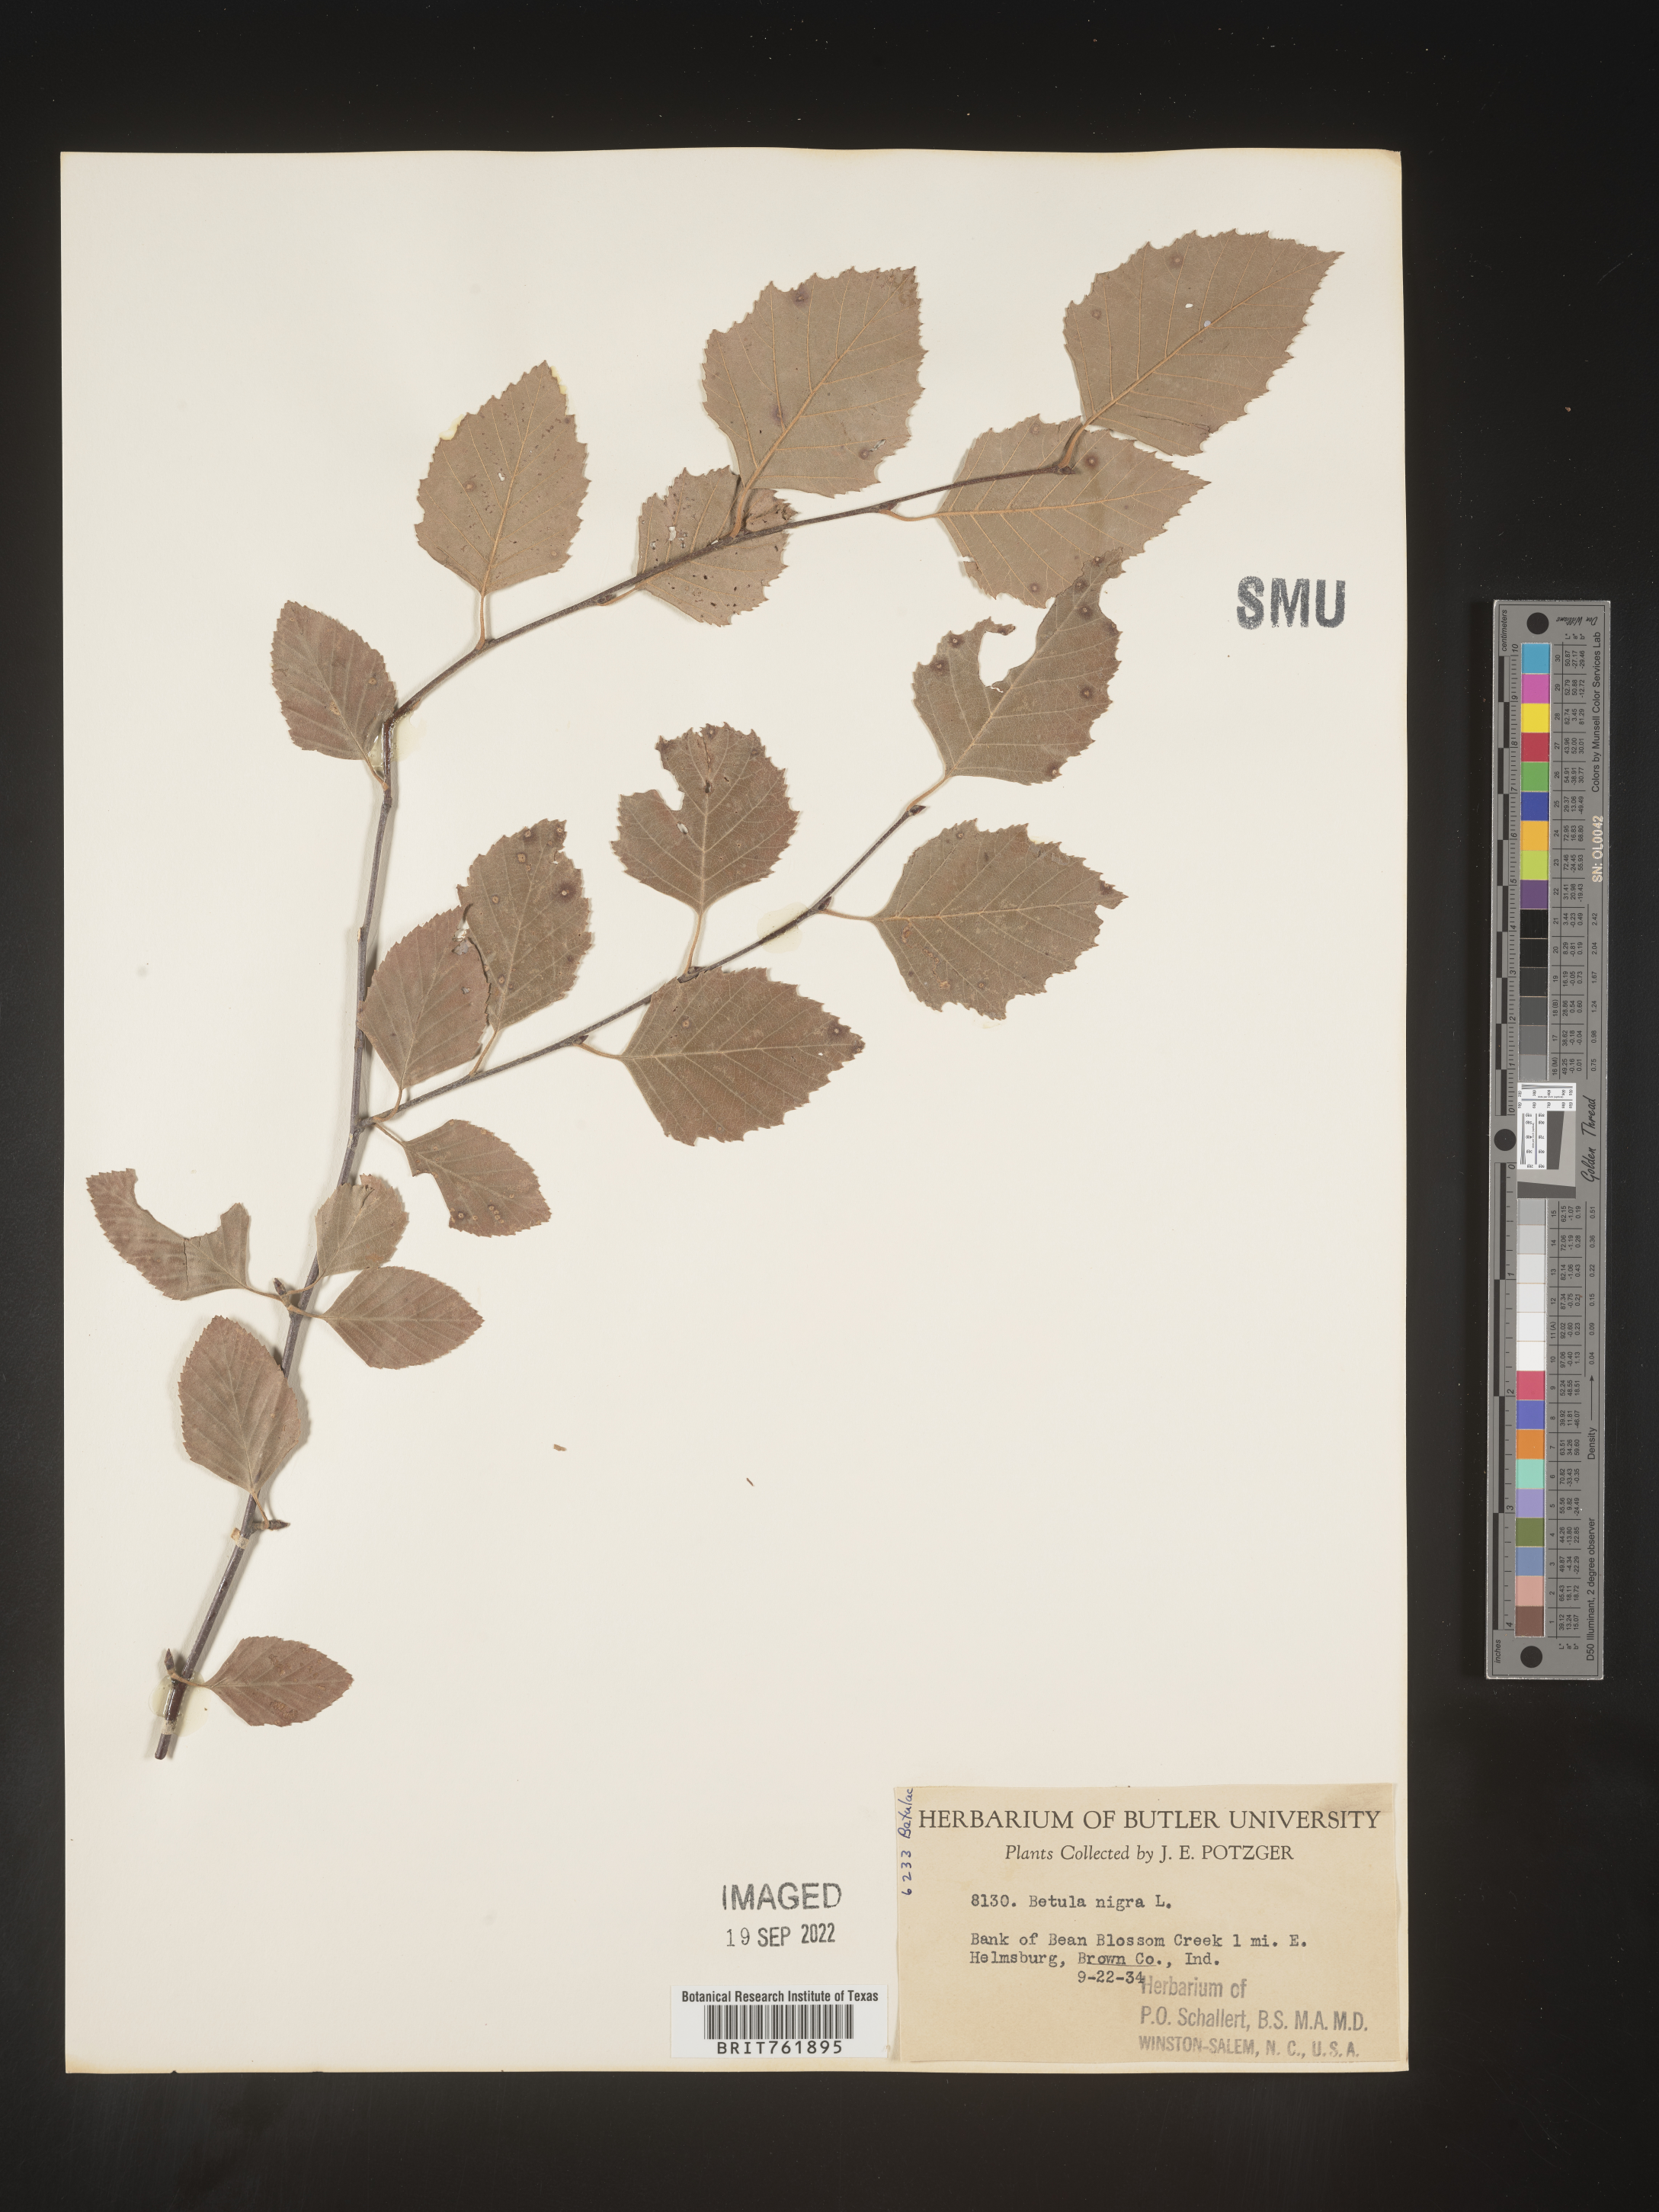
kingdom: Plantae
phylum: Tracheophyta
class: Magnoliopsida
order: Fagales
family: Betulaceae
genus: Betula
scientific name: Betula nigra
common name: Black birch
